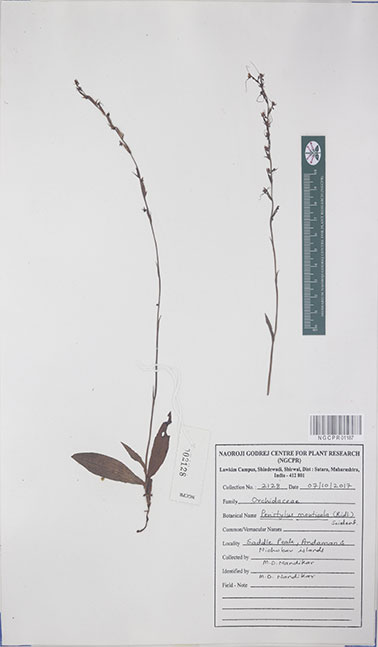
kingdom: Plantae
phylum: Tracheophyta
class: Liliopsida
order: Asparagales
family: Orchidaceae
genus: Peristylus
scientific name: Peristylus monticola
